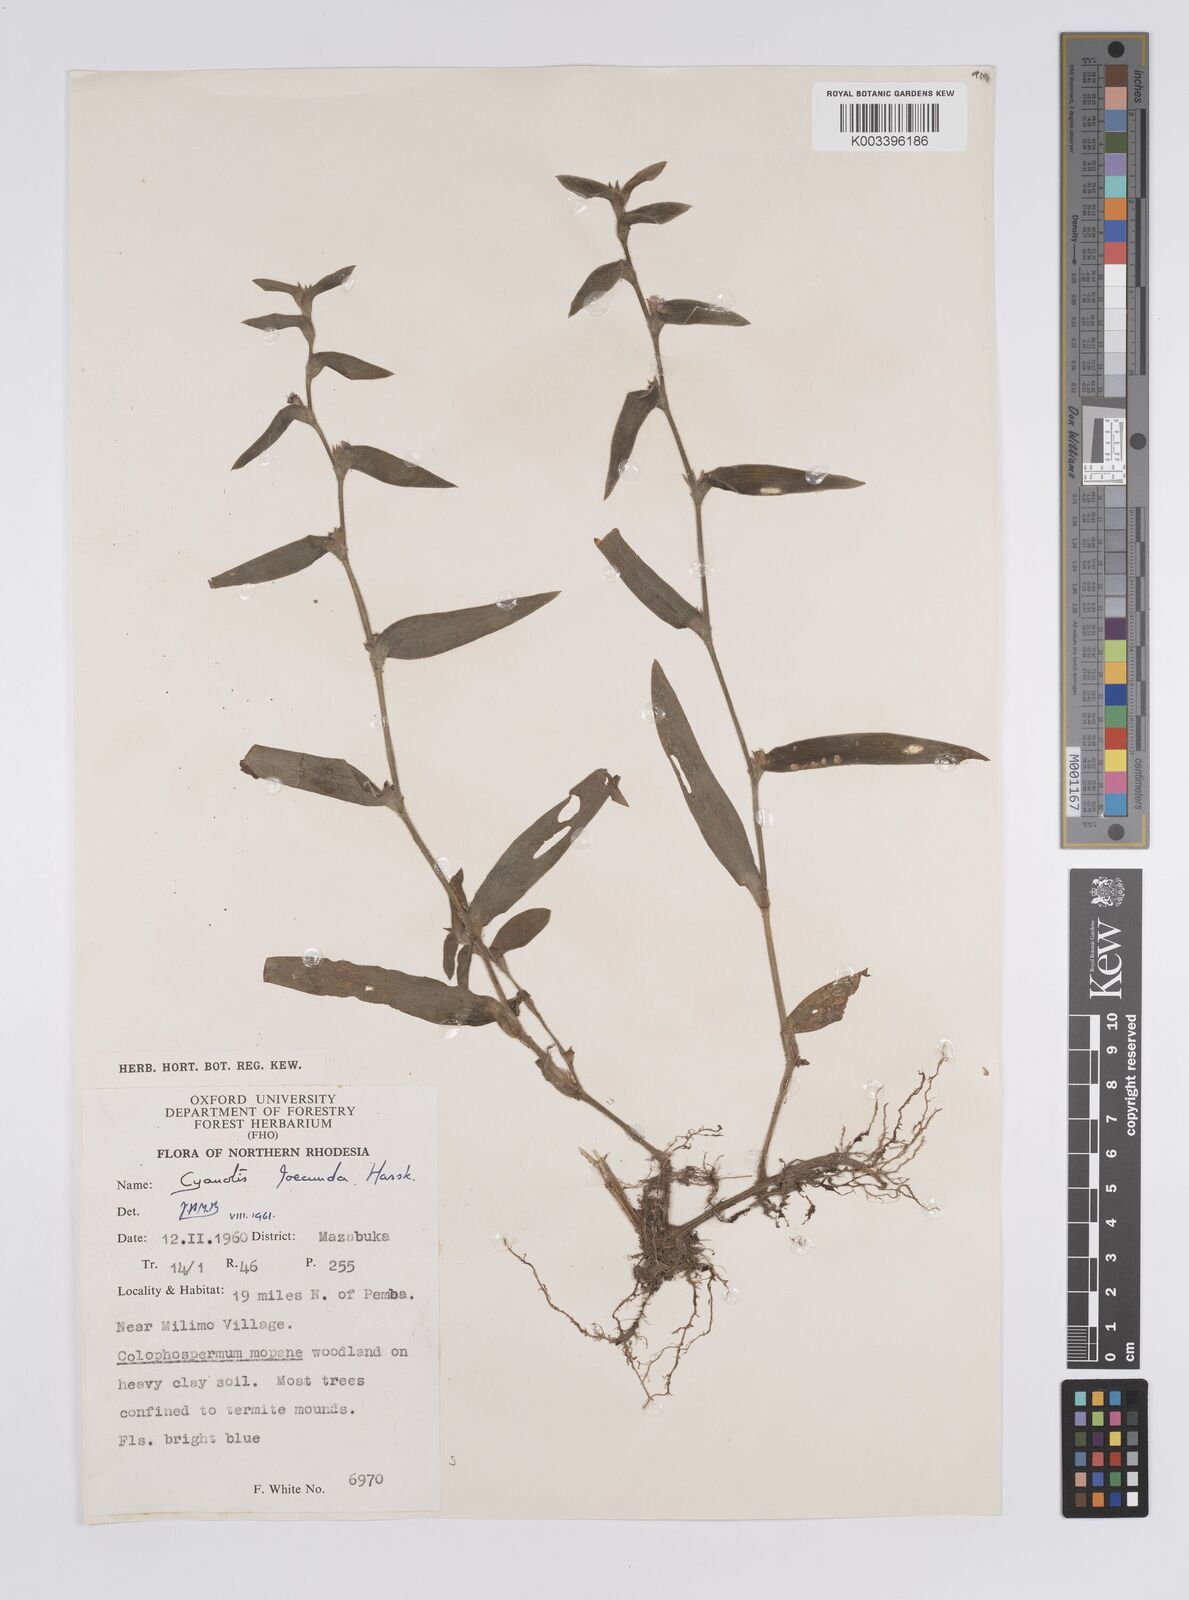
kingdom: Plantae
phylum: Tracheophyta
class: Liliopsida
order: Commelinales
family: Commelinaceae
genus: Cyanotis
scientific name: Cyanotis foecunda
